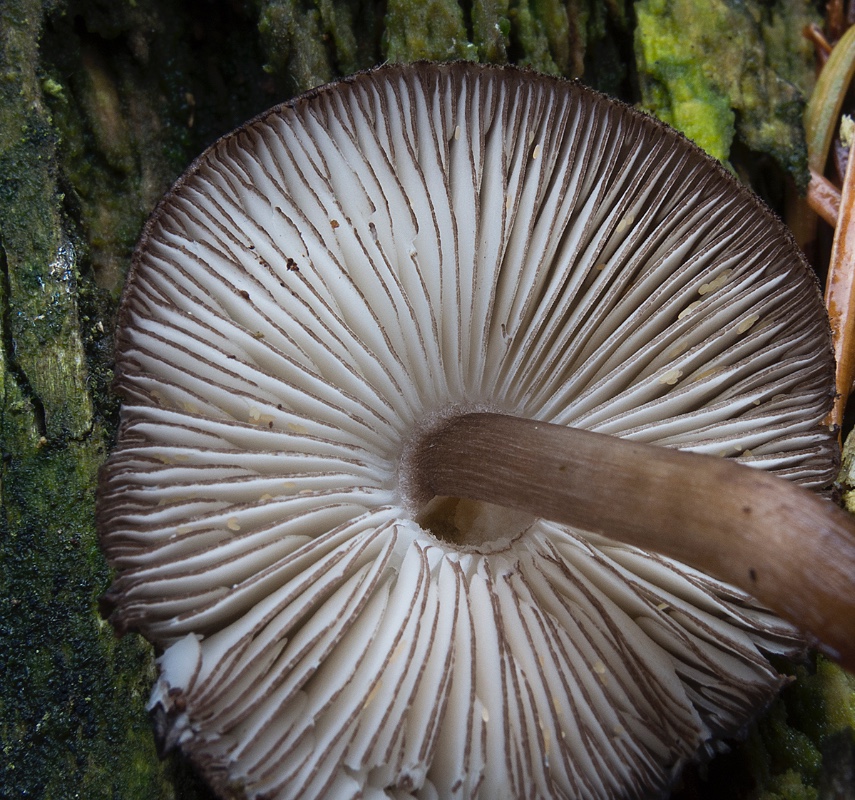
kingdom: Fungi
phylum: Basidiomycota
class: Agaricomycetes
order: Agaricales
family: Pluteaceae
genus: Pluteus
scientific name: Pluteus atromarginatus
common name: sortrandet skærmhat
